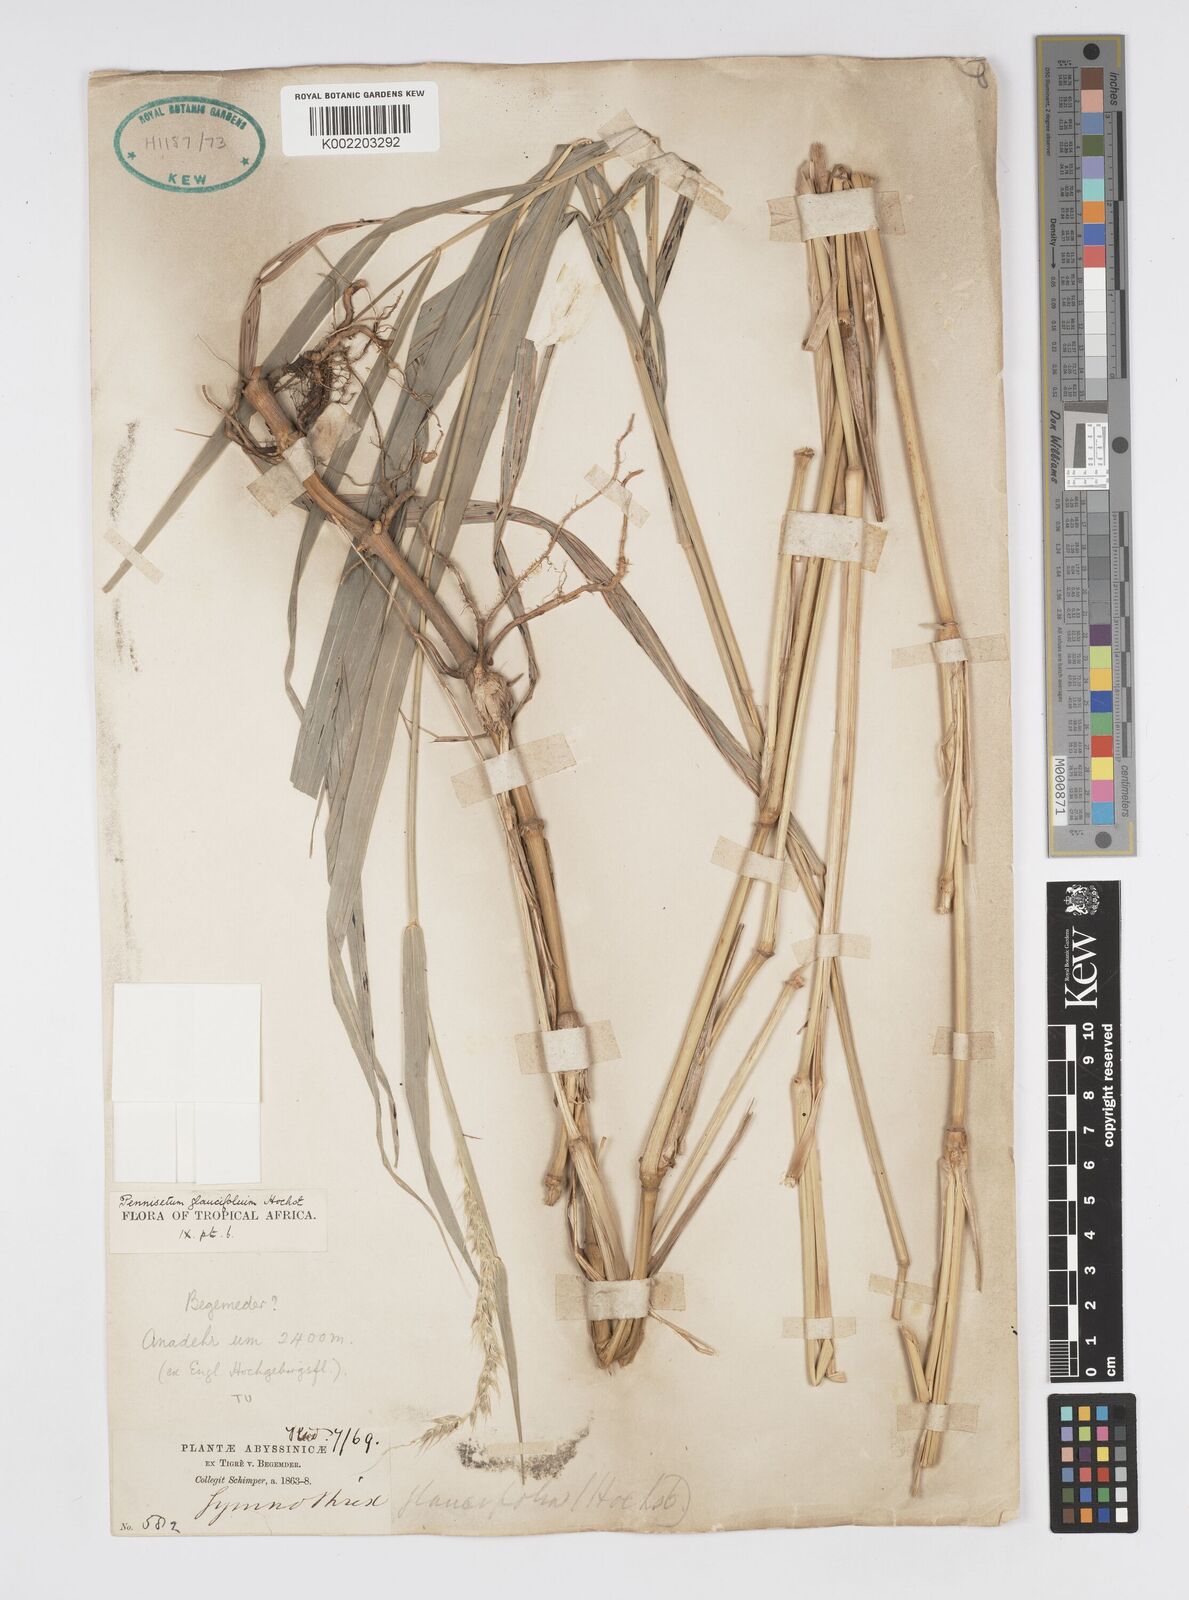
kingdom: Plantae
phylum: Tracheophyta
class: Liliopsida
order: Poales
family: Poaceae
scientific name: Poaceae
